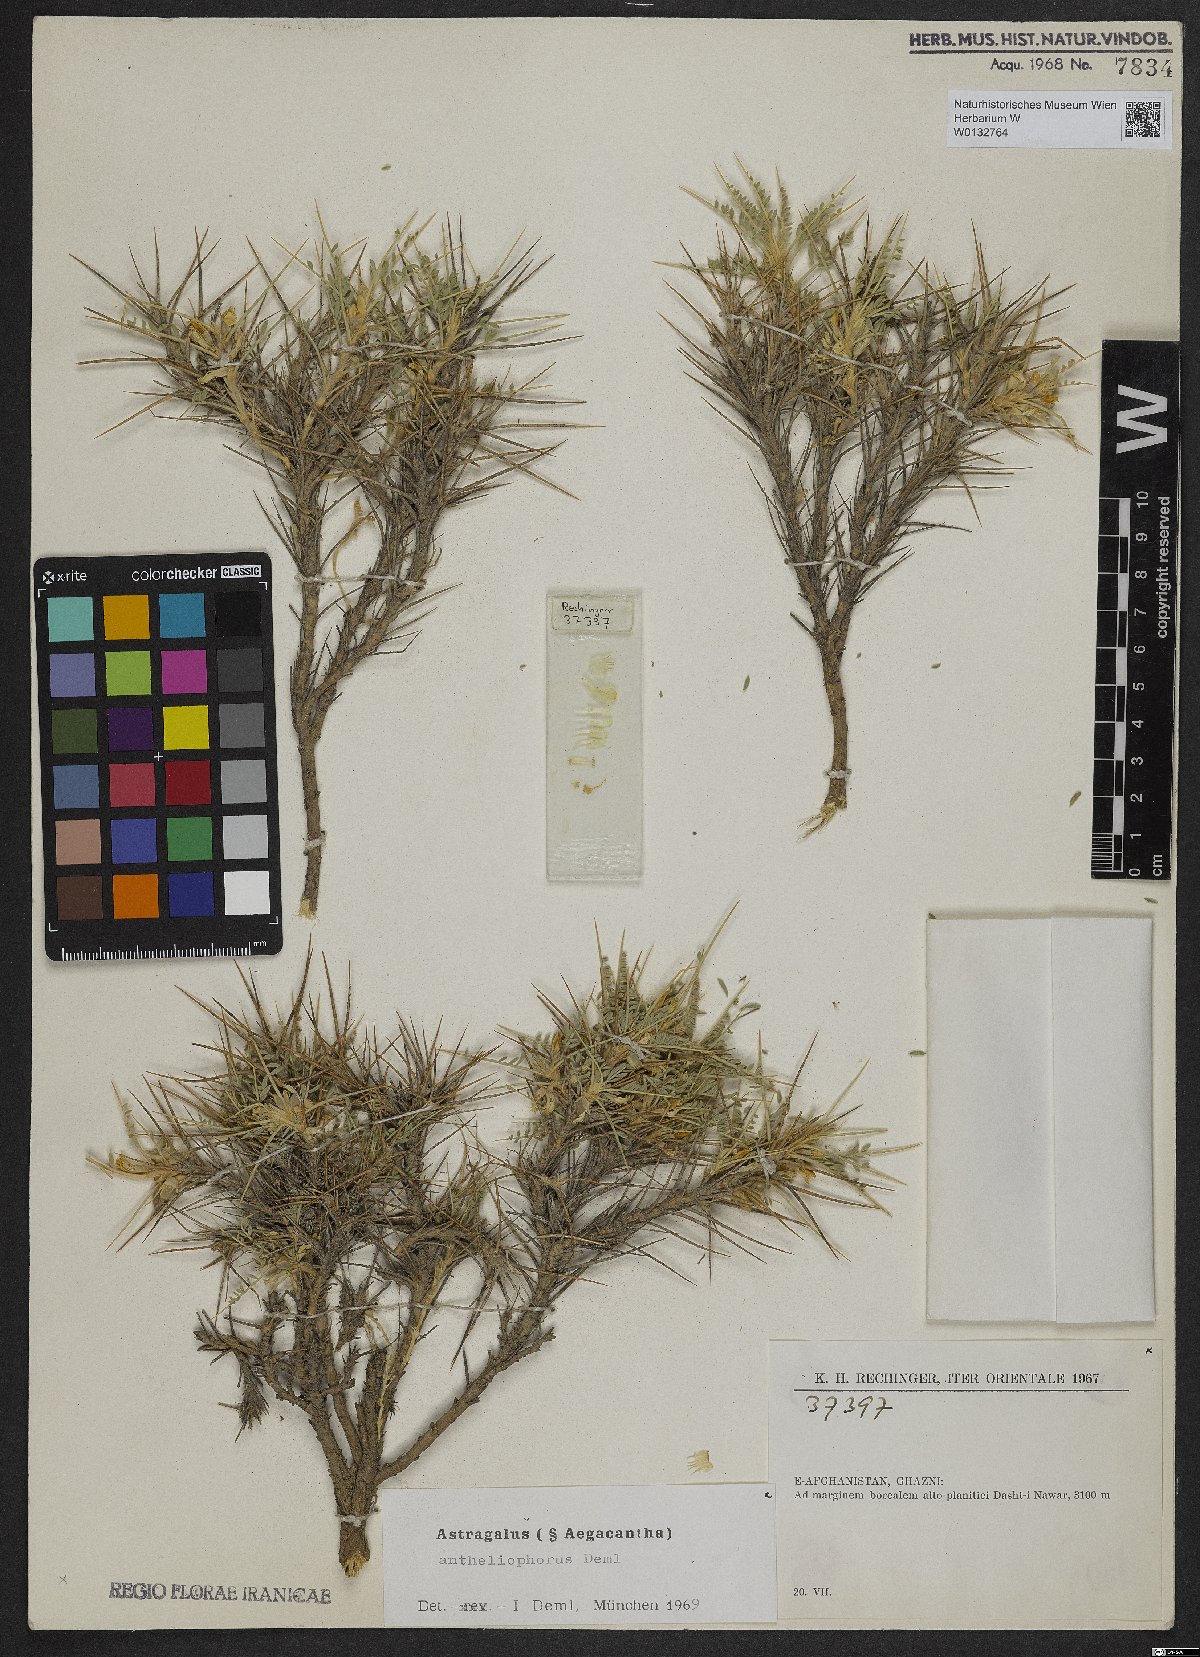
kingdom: Plantae
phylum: Tracheophyta
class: Magnoliopsida
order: Fabales
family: Fabaceae
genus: Astragalus
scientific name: Astragalus antheliophorus
